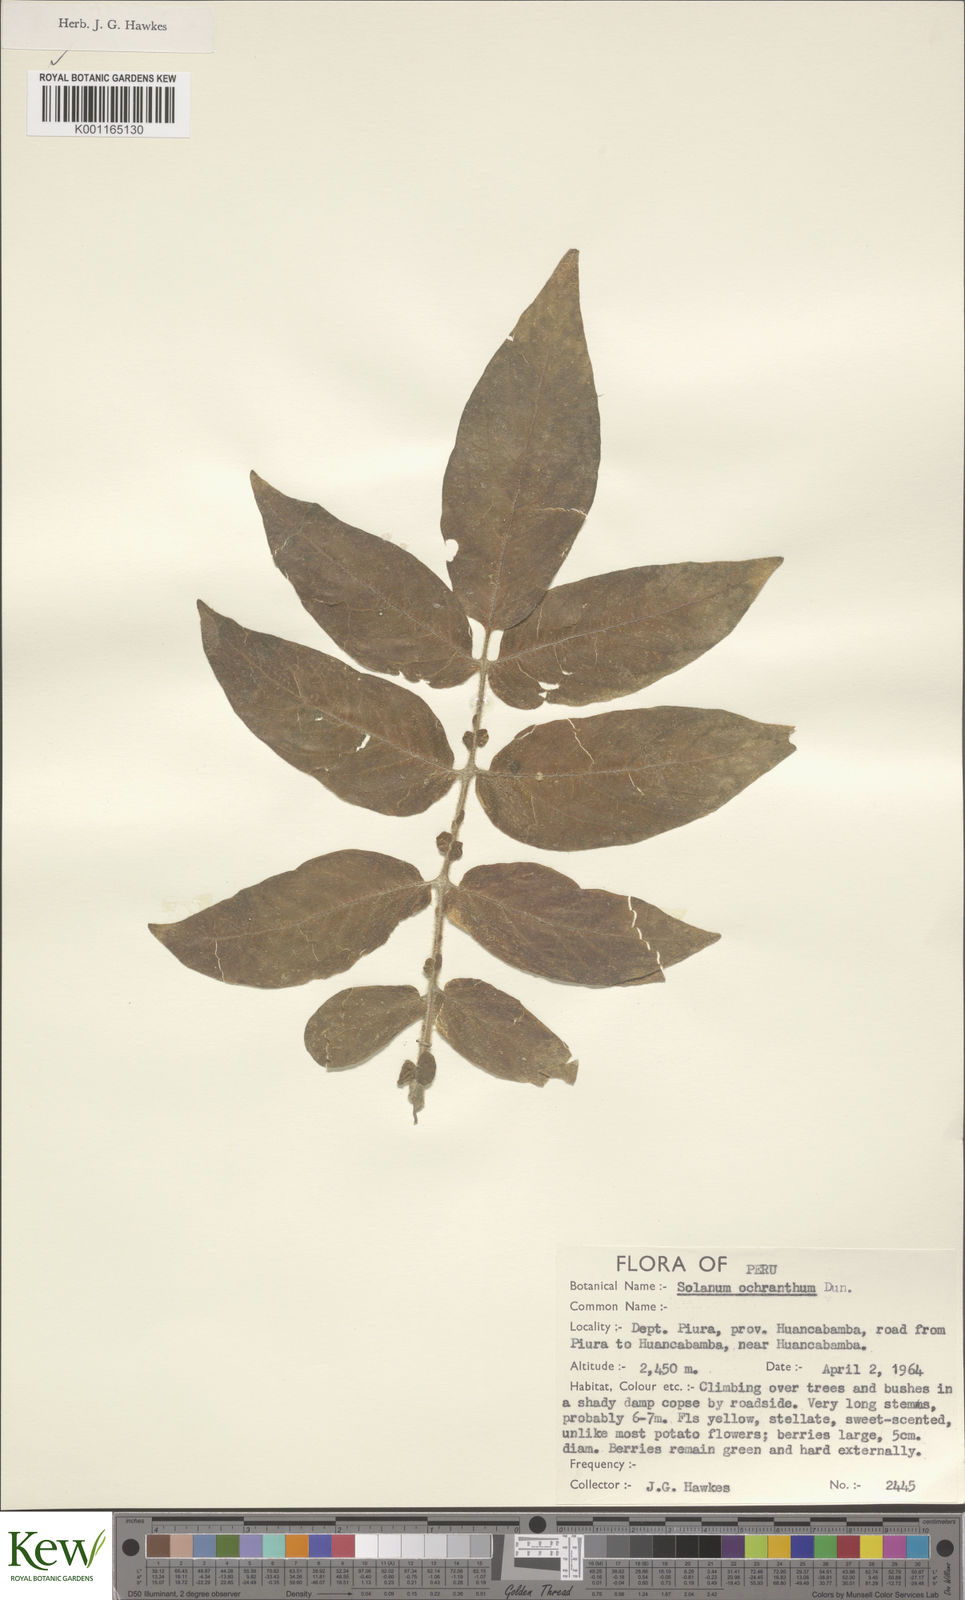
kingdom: Plantae
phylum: Tracheophyta
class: Magnoliopsida
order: Solanales
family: Solanaceae
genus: Solanum
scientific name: Solanum ochranthum
